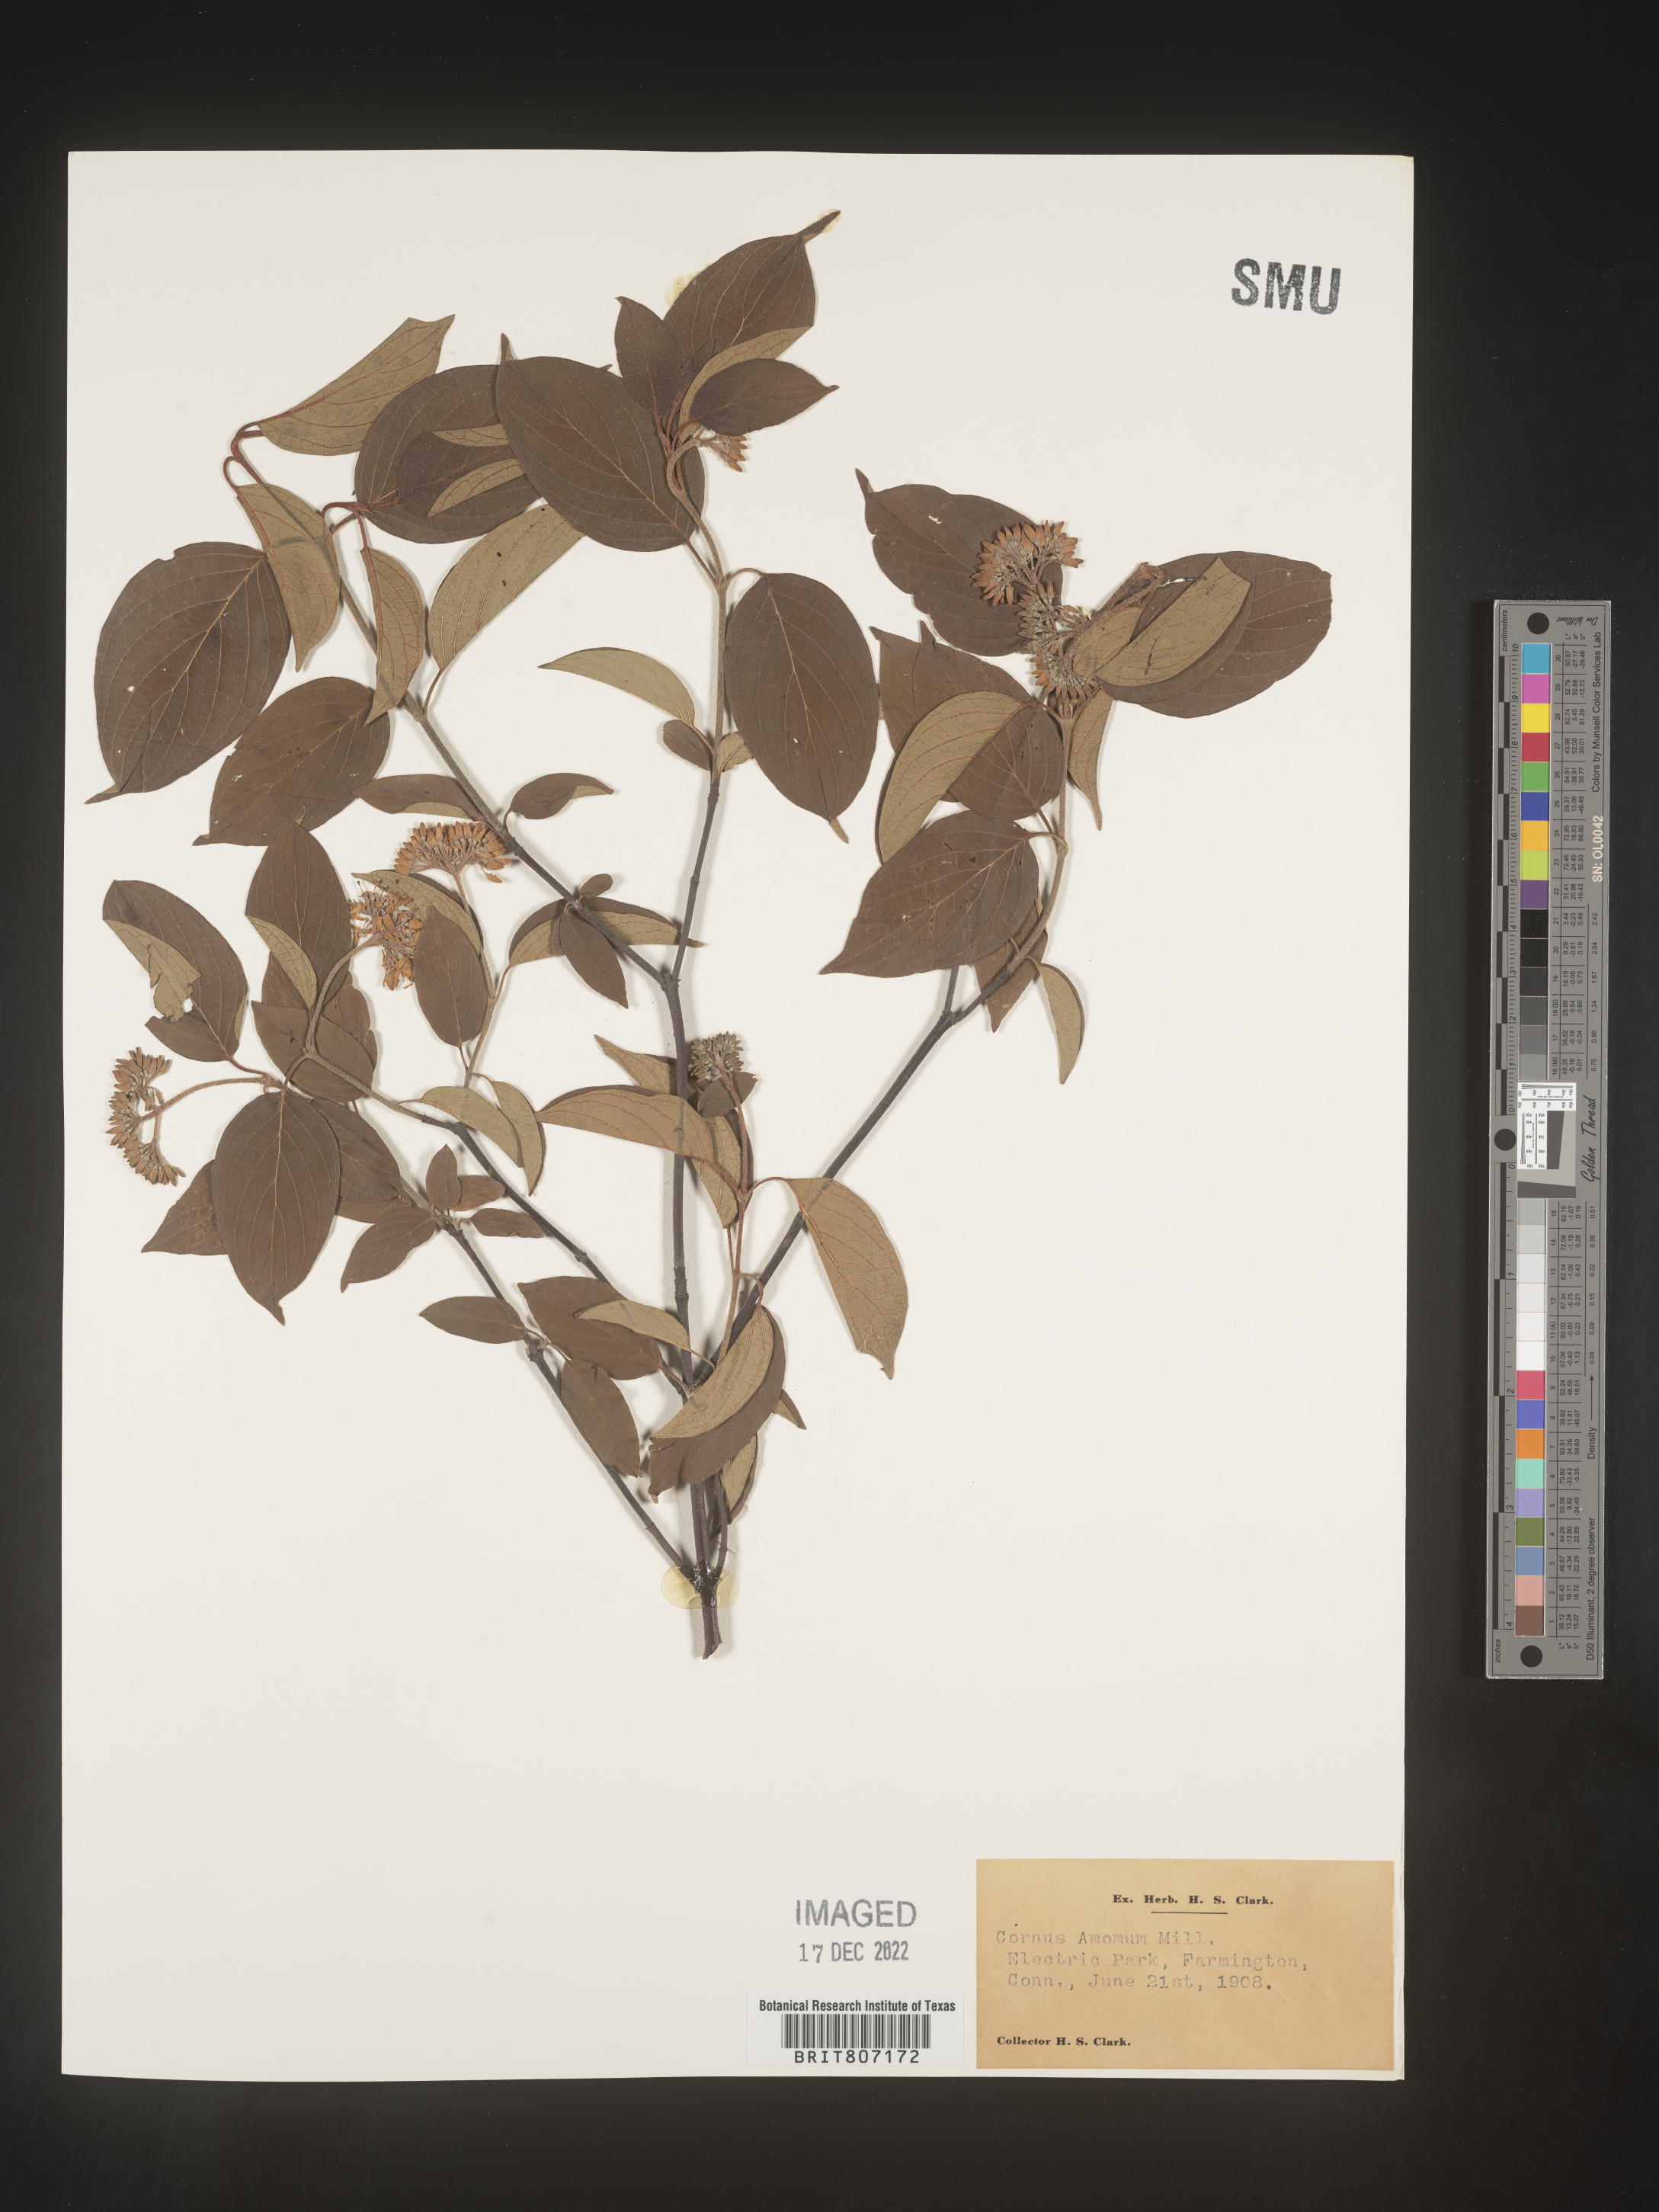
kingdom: Plantae
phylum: Tracheophyta
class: Magnoliopsida
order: Cornales
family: Cornaceae
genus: Cornus
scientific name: Cornus amomum
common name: Silky dogwood
